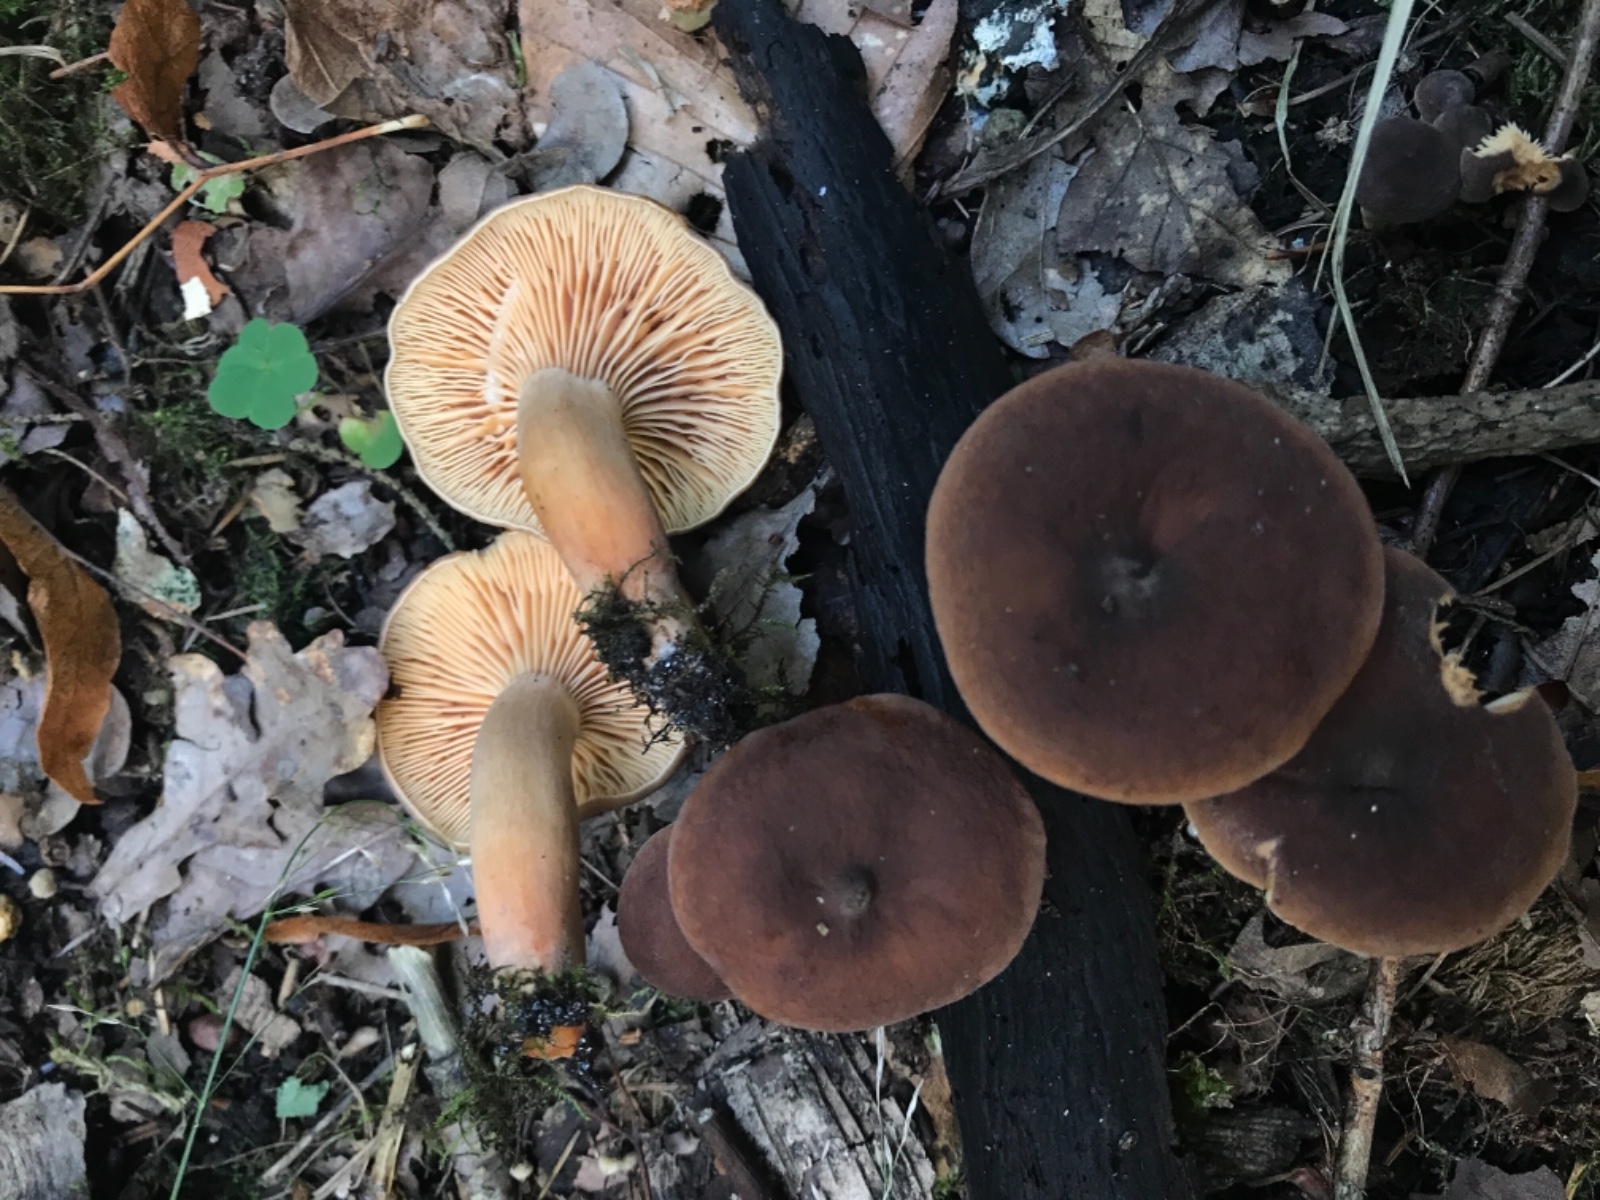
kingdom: Fungi
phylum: Basidiomycota
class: Agaricomycetes
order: Russulales
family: Russulaceae
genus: Lactarius
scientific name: Lactarius serifluus
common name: tæge-mælkehat
